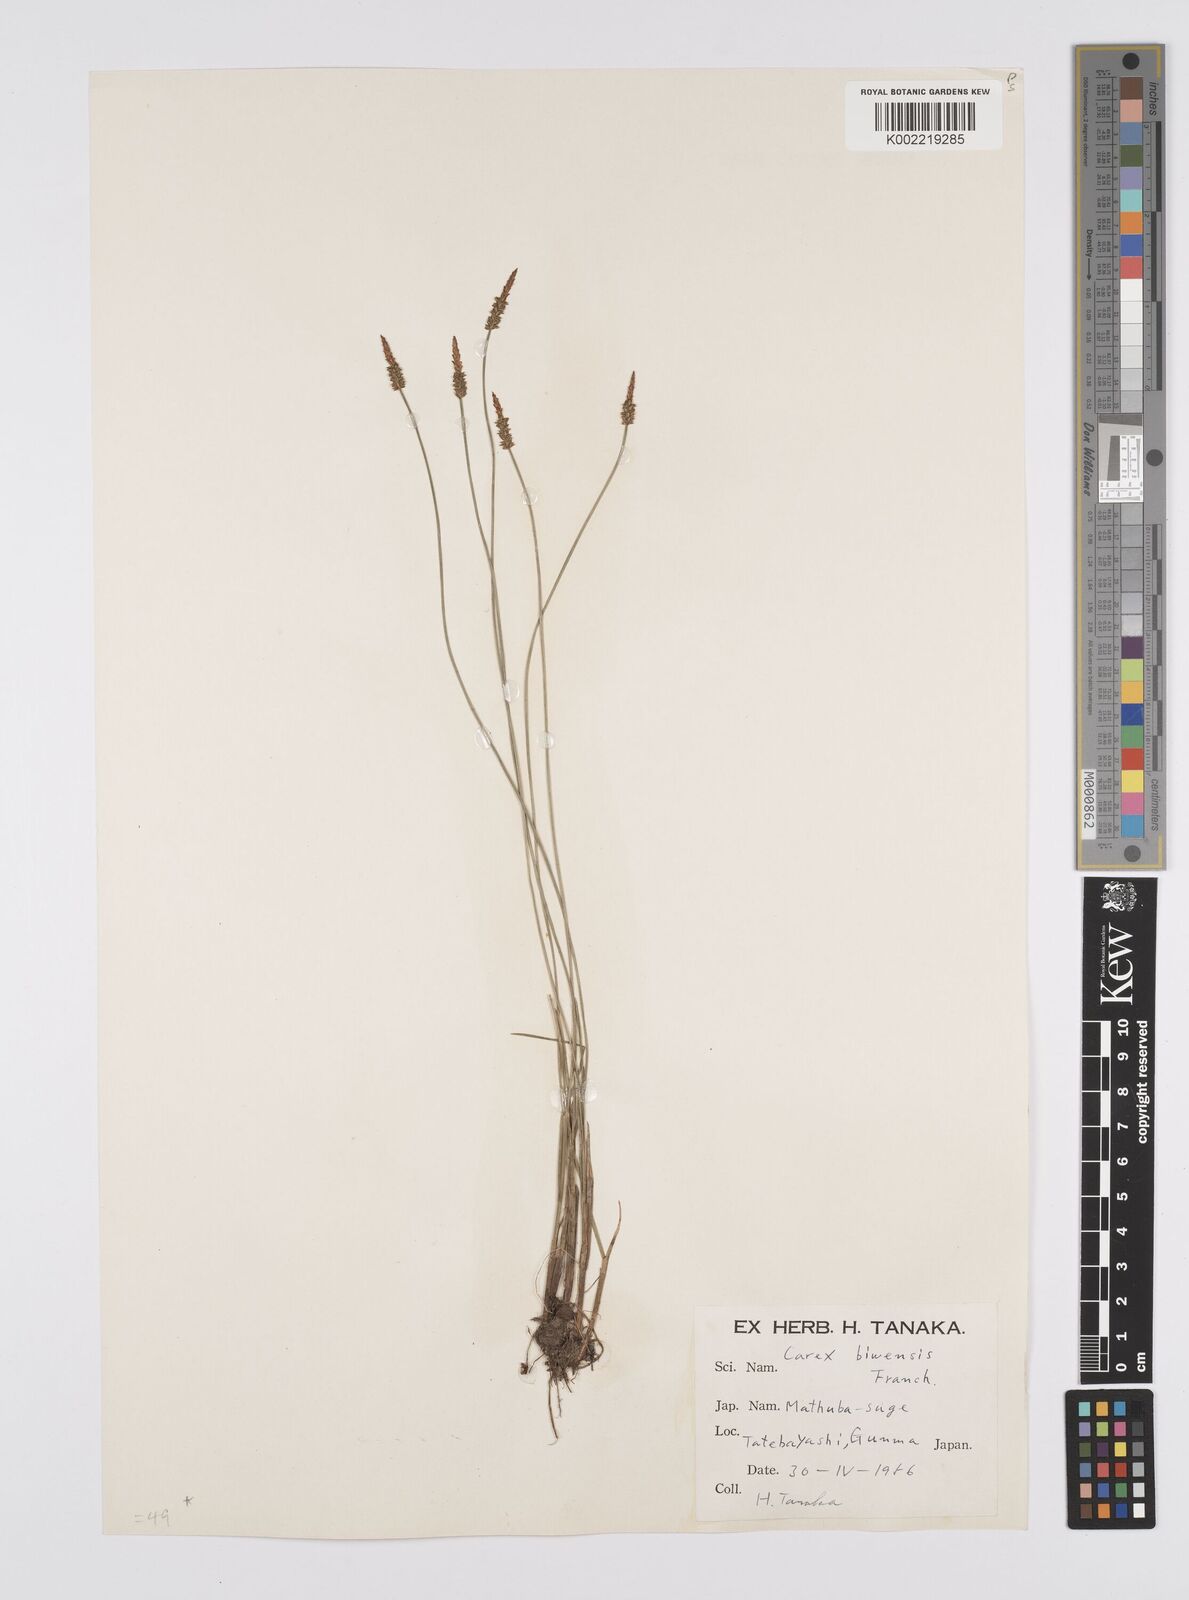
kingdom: Plantae
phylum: Tracheophyta
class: Liliopsida
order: Poales
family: Cyperaceae
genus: Carex
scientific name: Carex rara
